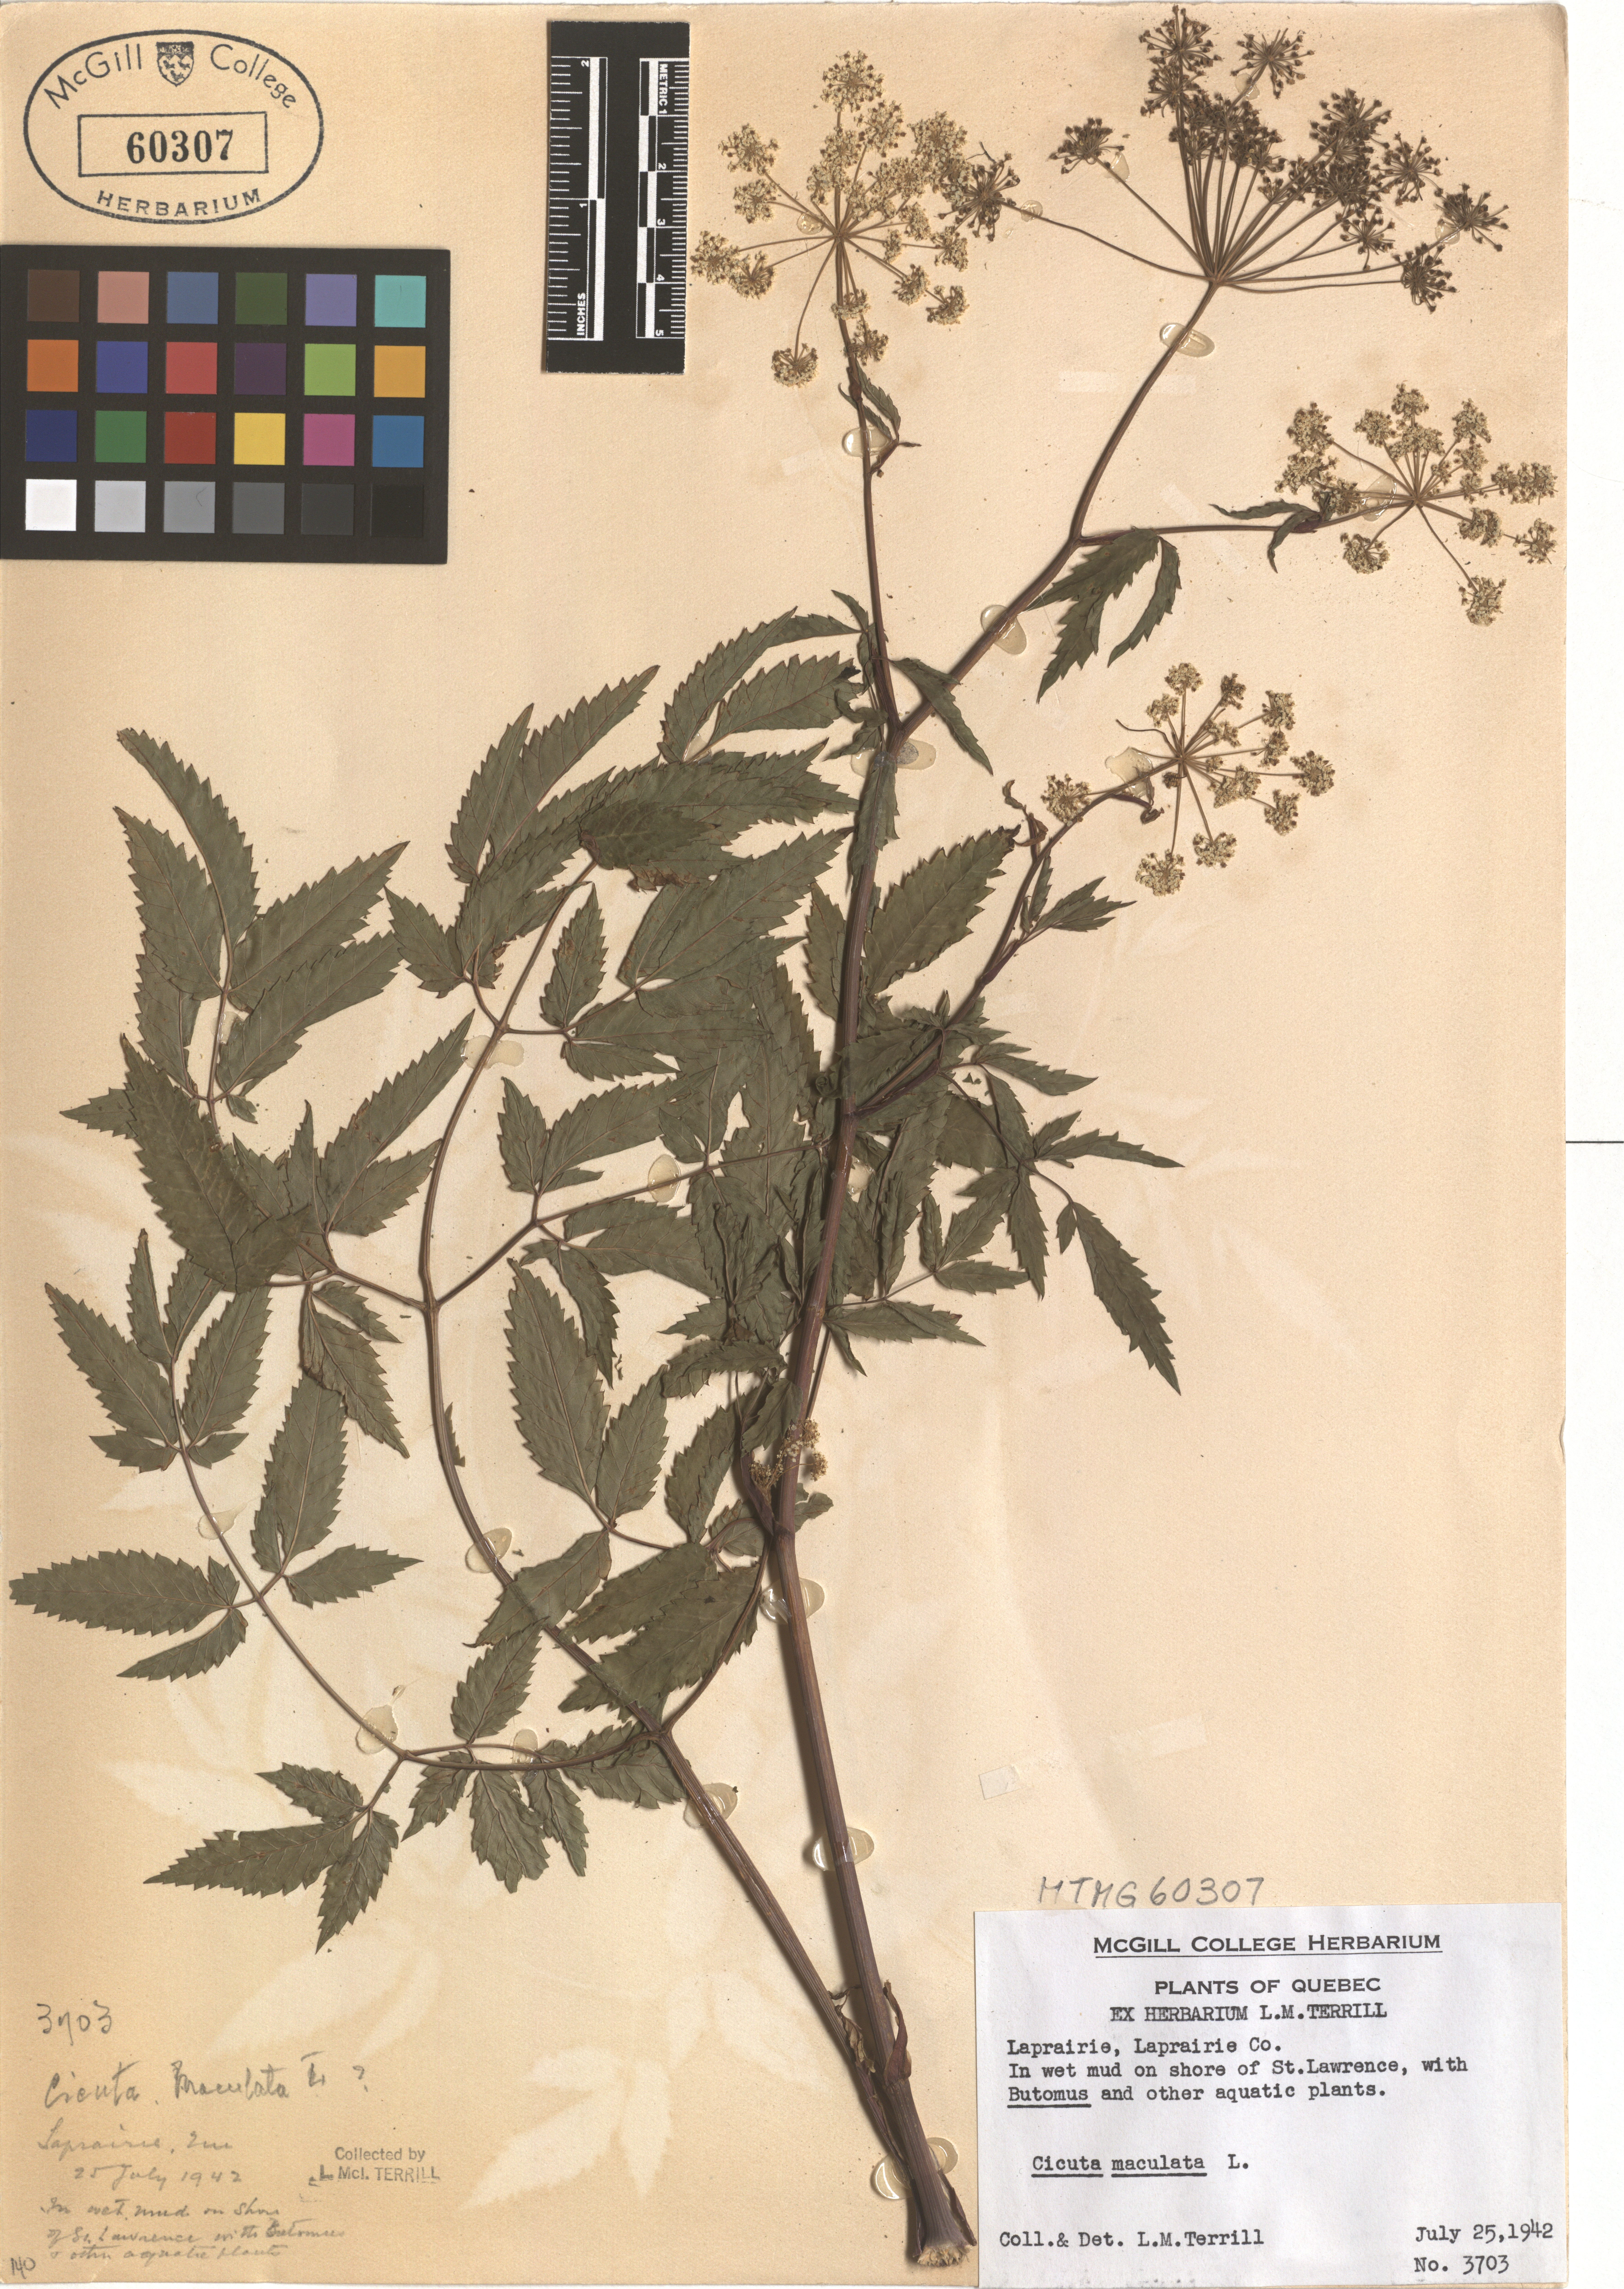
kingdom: Plantae
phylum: Tracheophyta
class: Magnoliopsida
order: Apiales
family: Apiaceae
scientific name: Apiaceae
